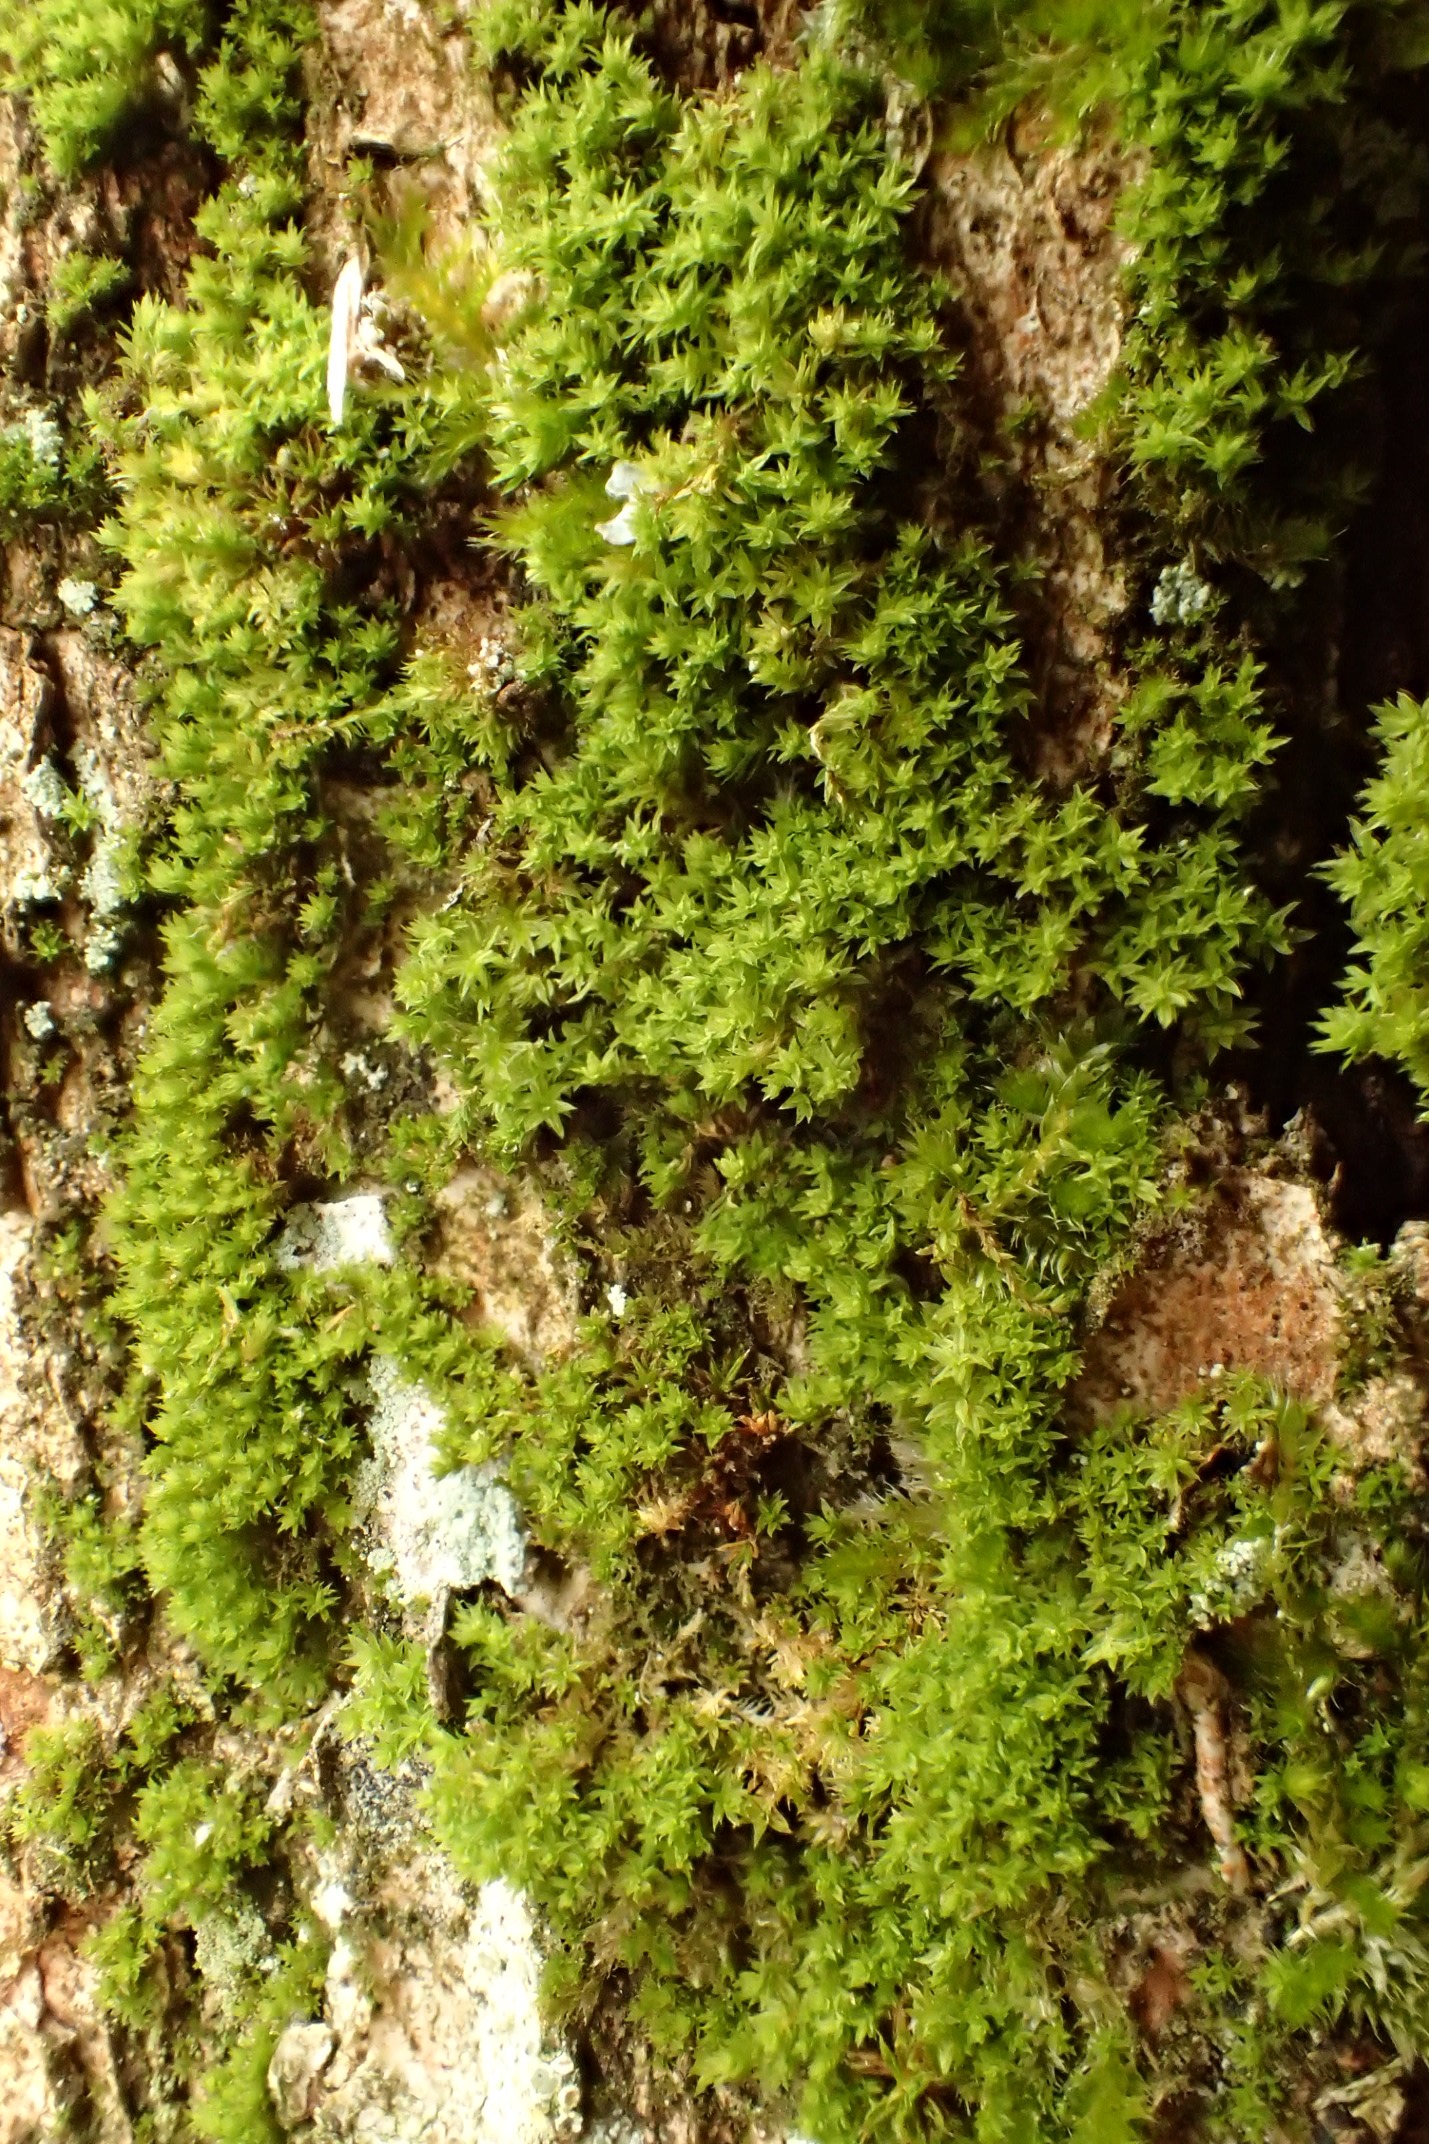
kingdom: Plantae
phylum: Bryophyta
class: Bryopsida
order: Orthotrichales
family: Orthotrichaceae
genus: Zygodon
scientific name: Zygodon conoideus
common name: Tand-køllemos
